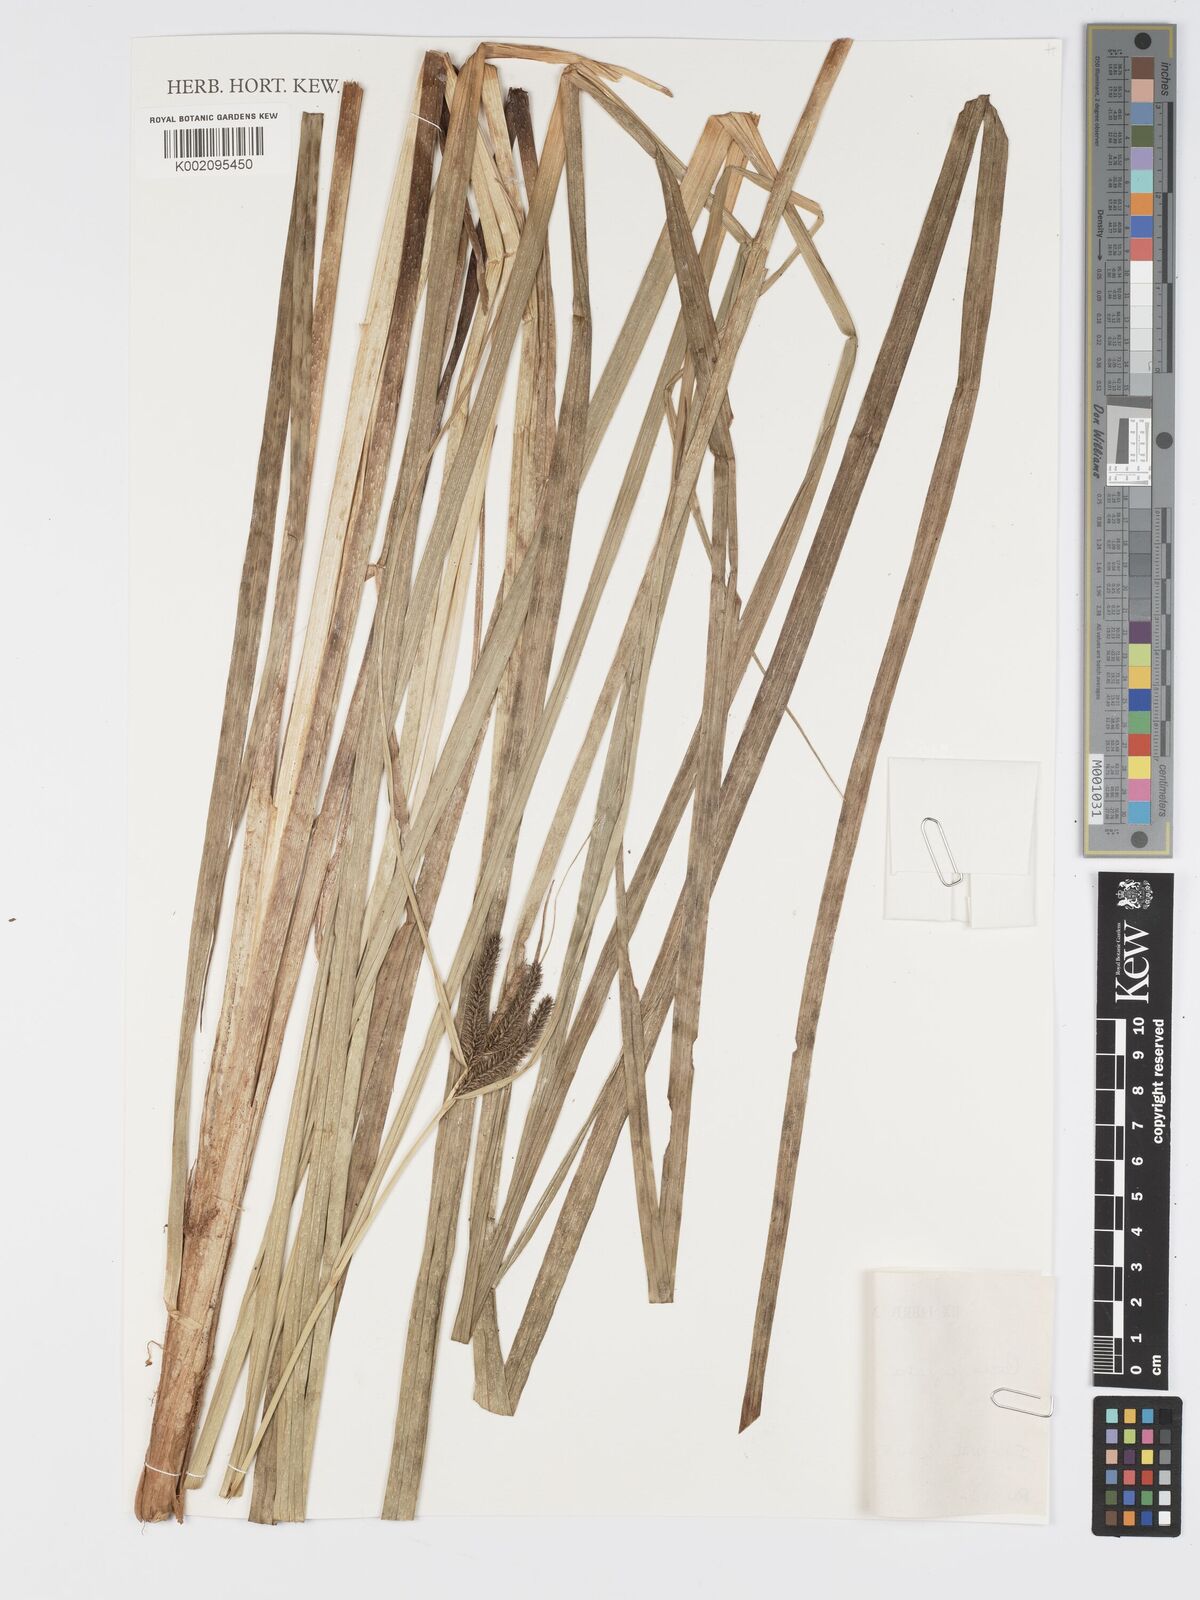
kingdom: Plantae
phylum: Tracheophyta
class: Liliopsida
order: Poales
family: Cyperaceae
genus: Carex
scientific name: Carex cognata
